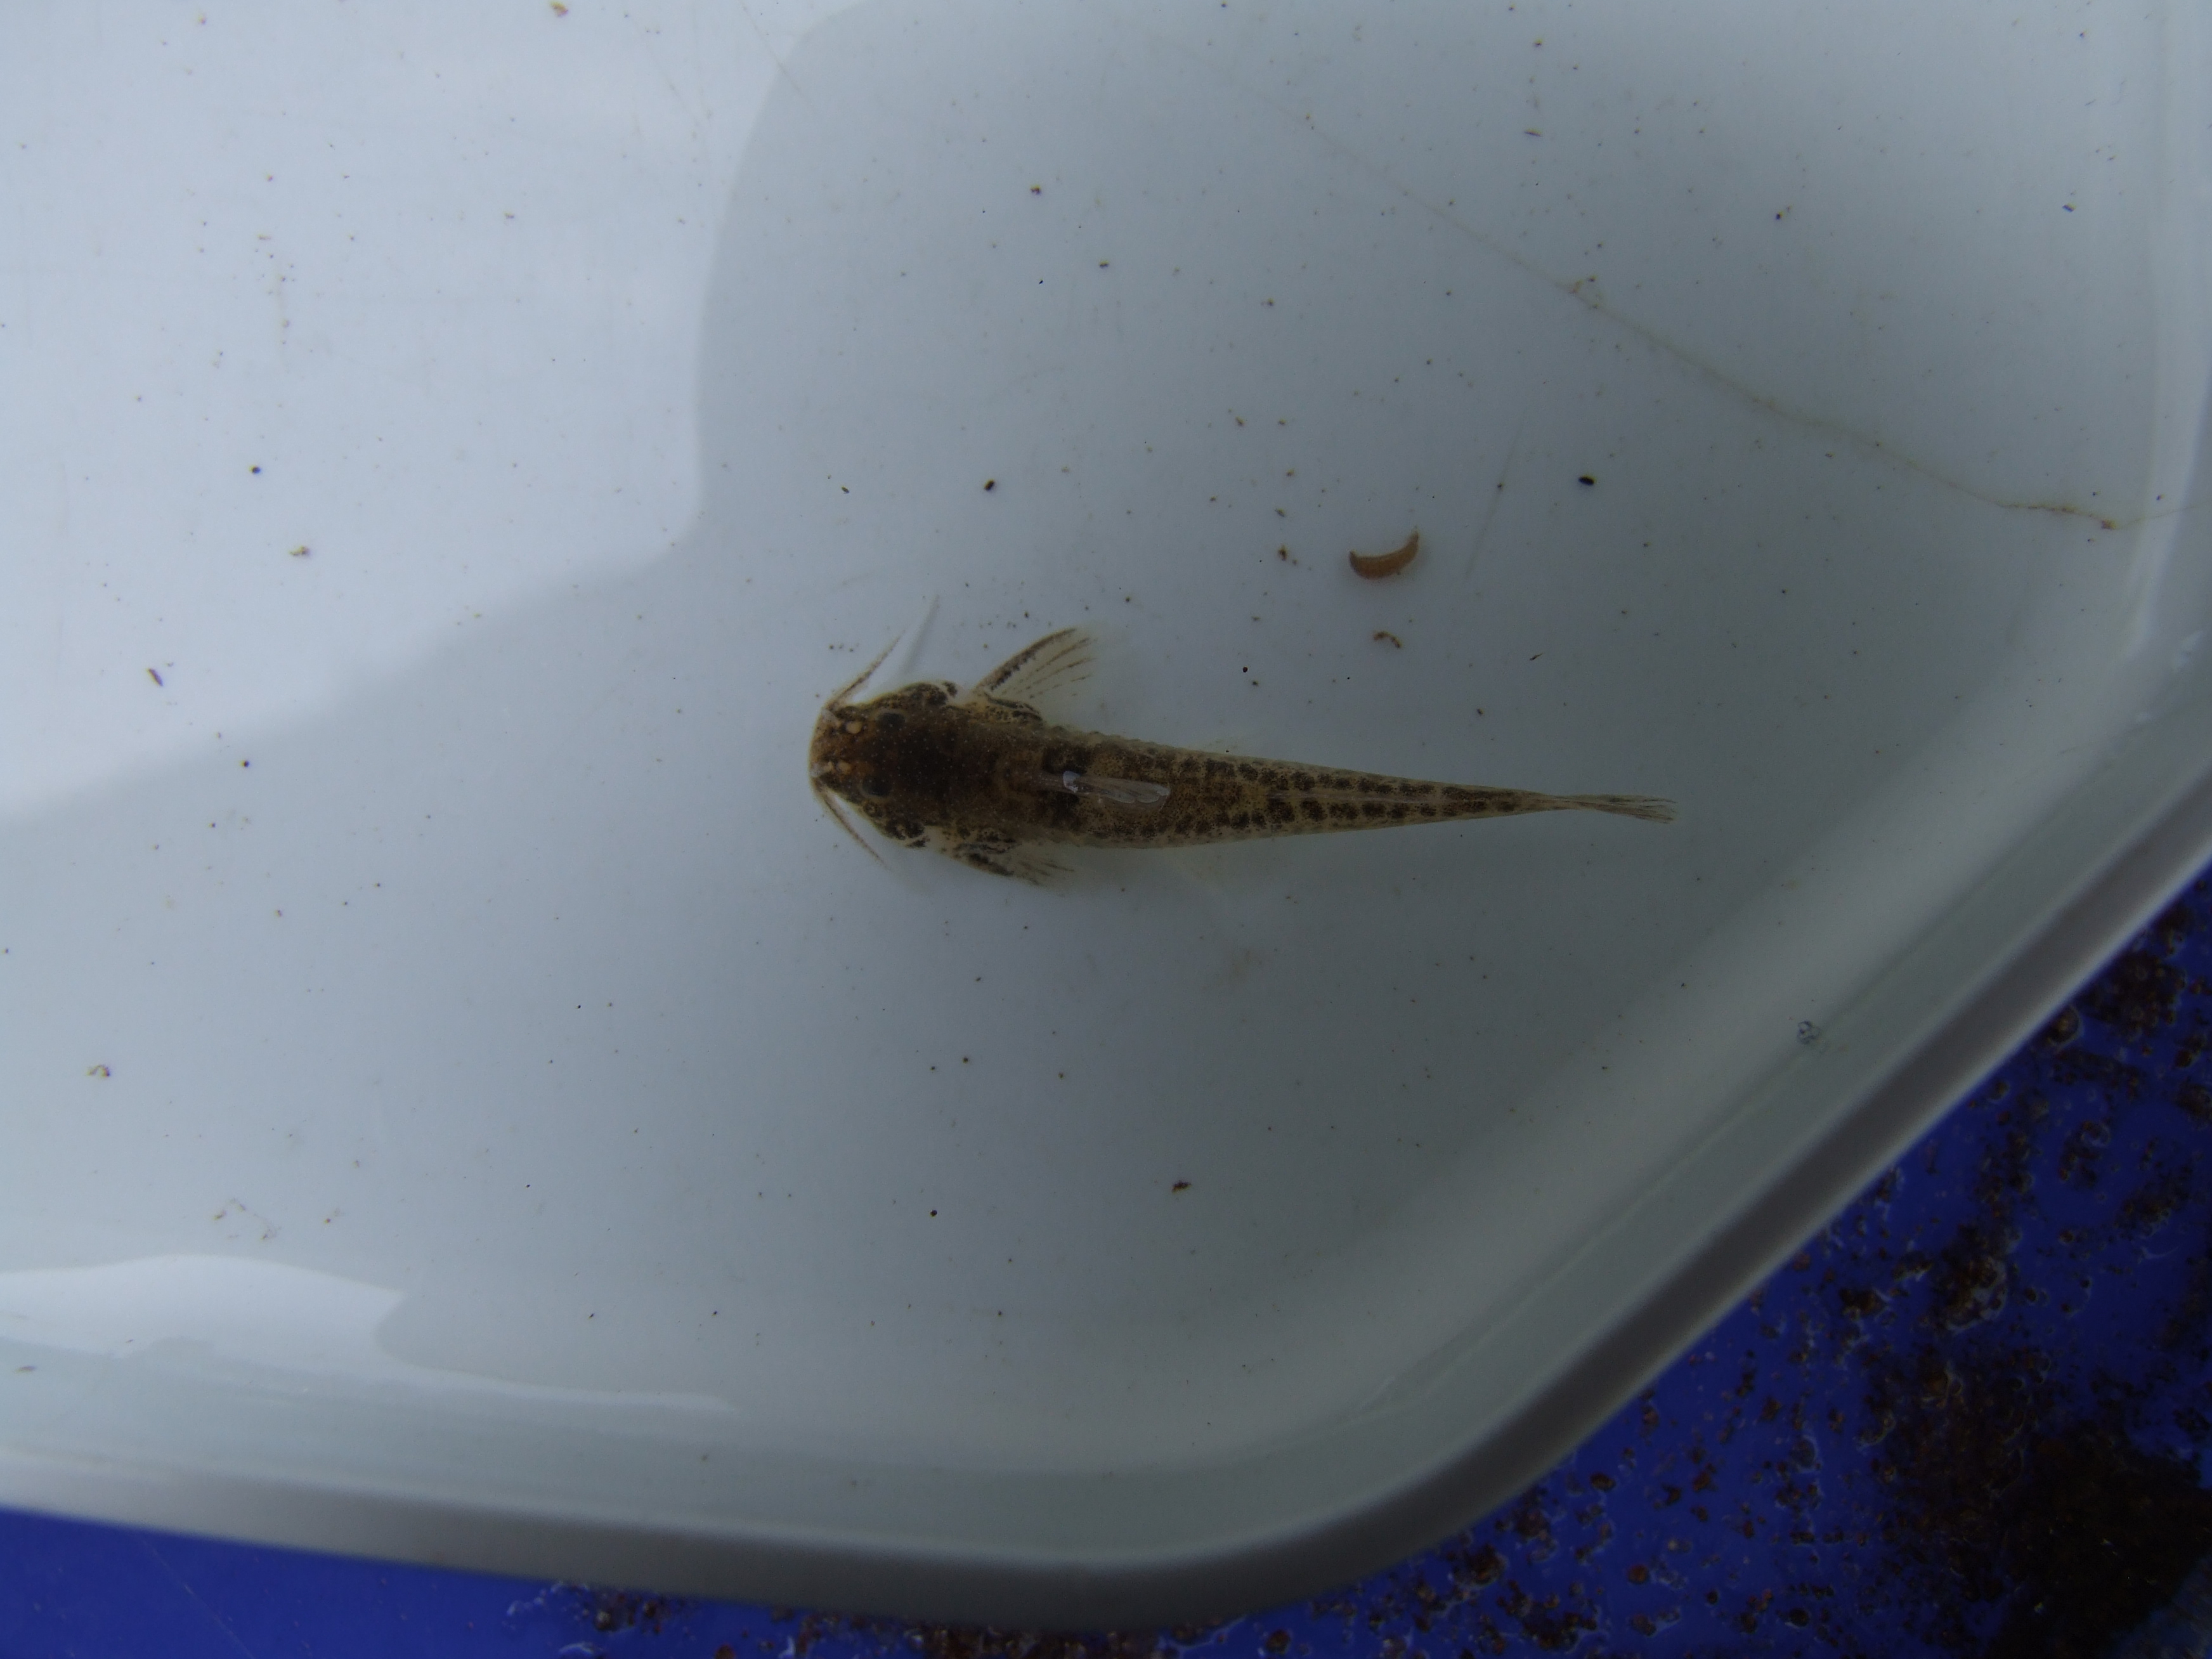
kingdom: Animalia
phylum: Chordata
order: Siluriformes
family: Amphiliidae
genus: Zaireichthys
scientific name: Zaireichthys
